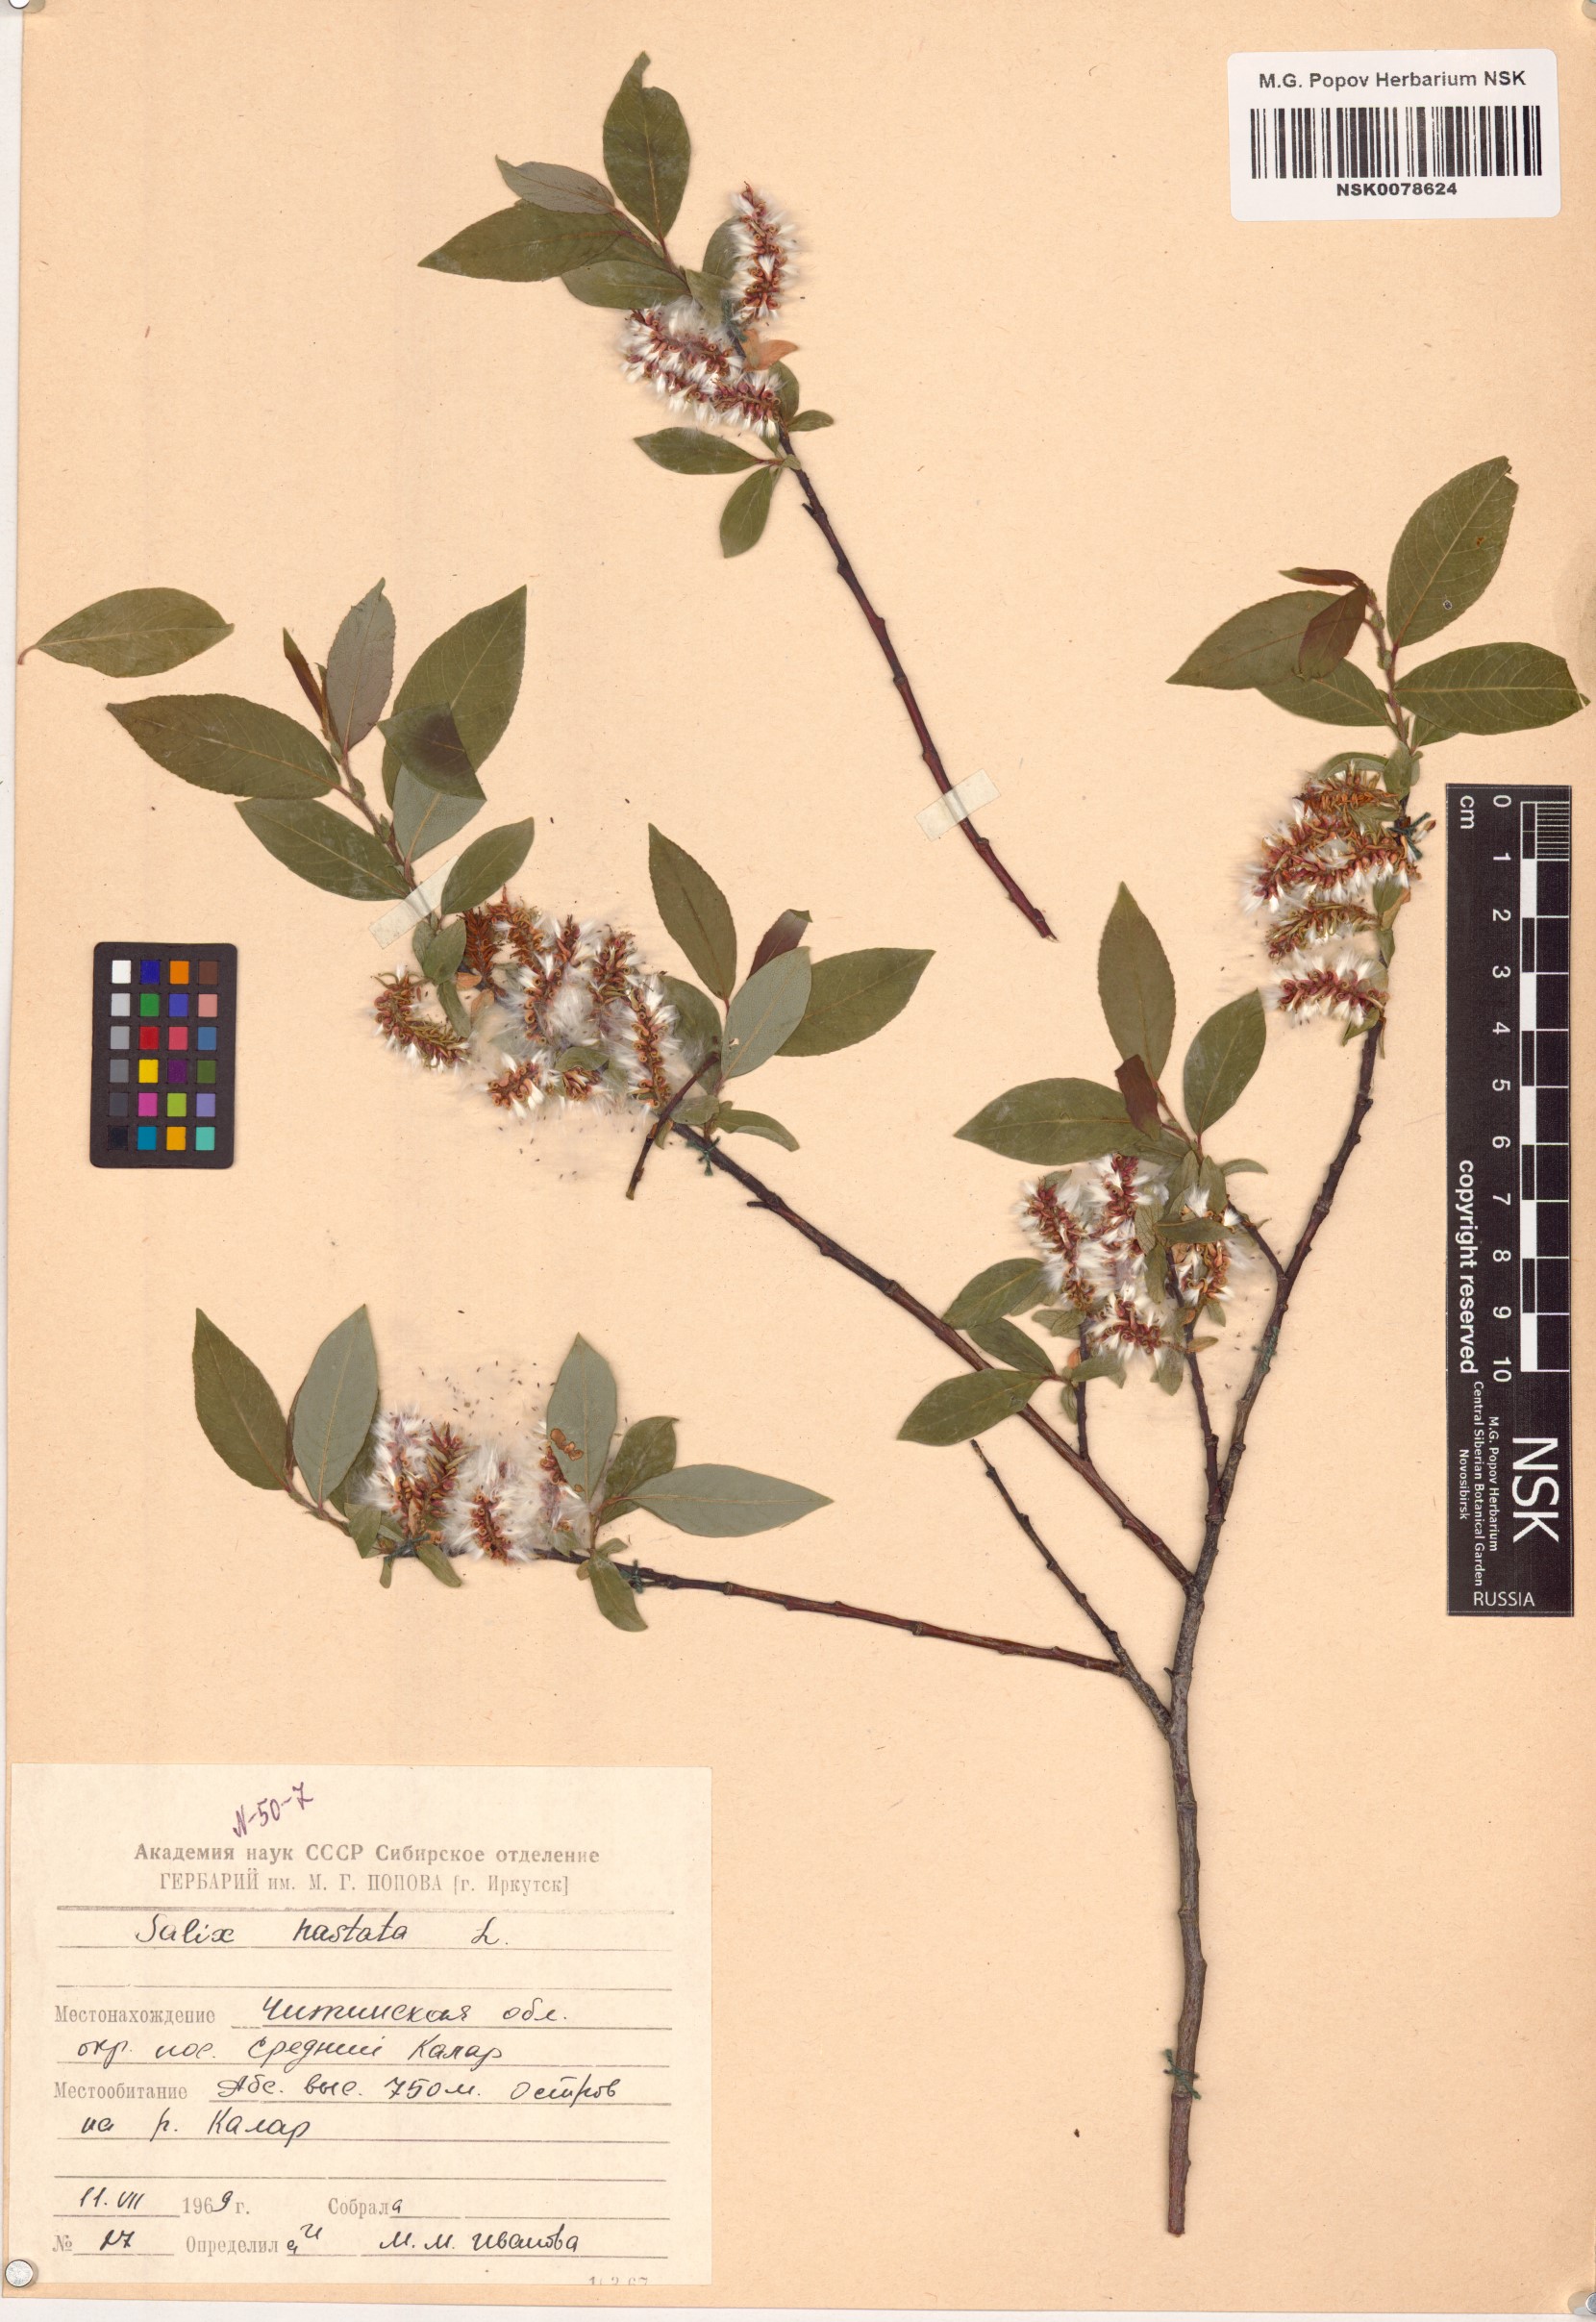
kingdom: Plantae
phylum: Tracheophyta
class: Magnoliopsida
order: Malpighiales
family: Salicaceae
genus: Salix
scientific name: Salix hastata
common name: Halberd willow
